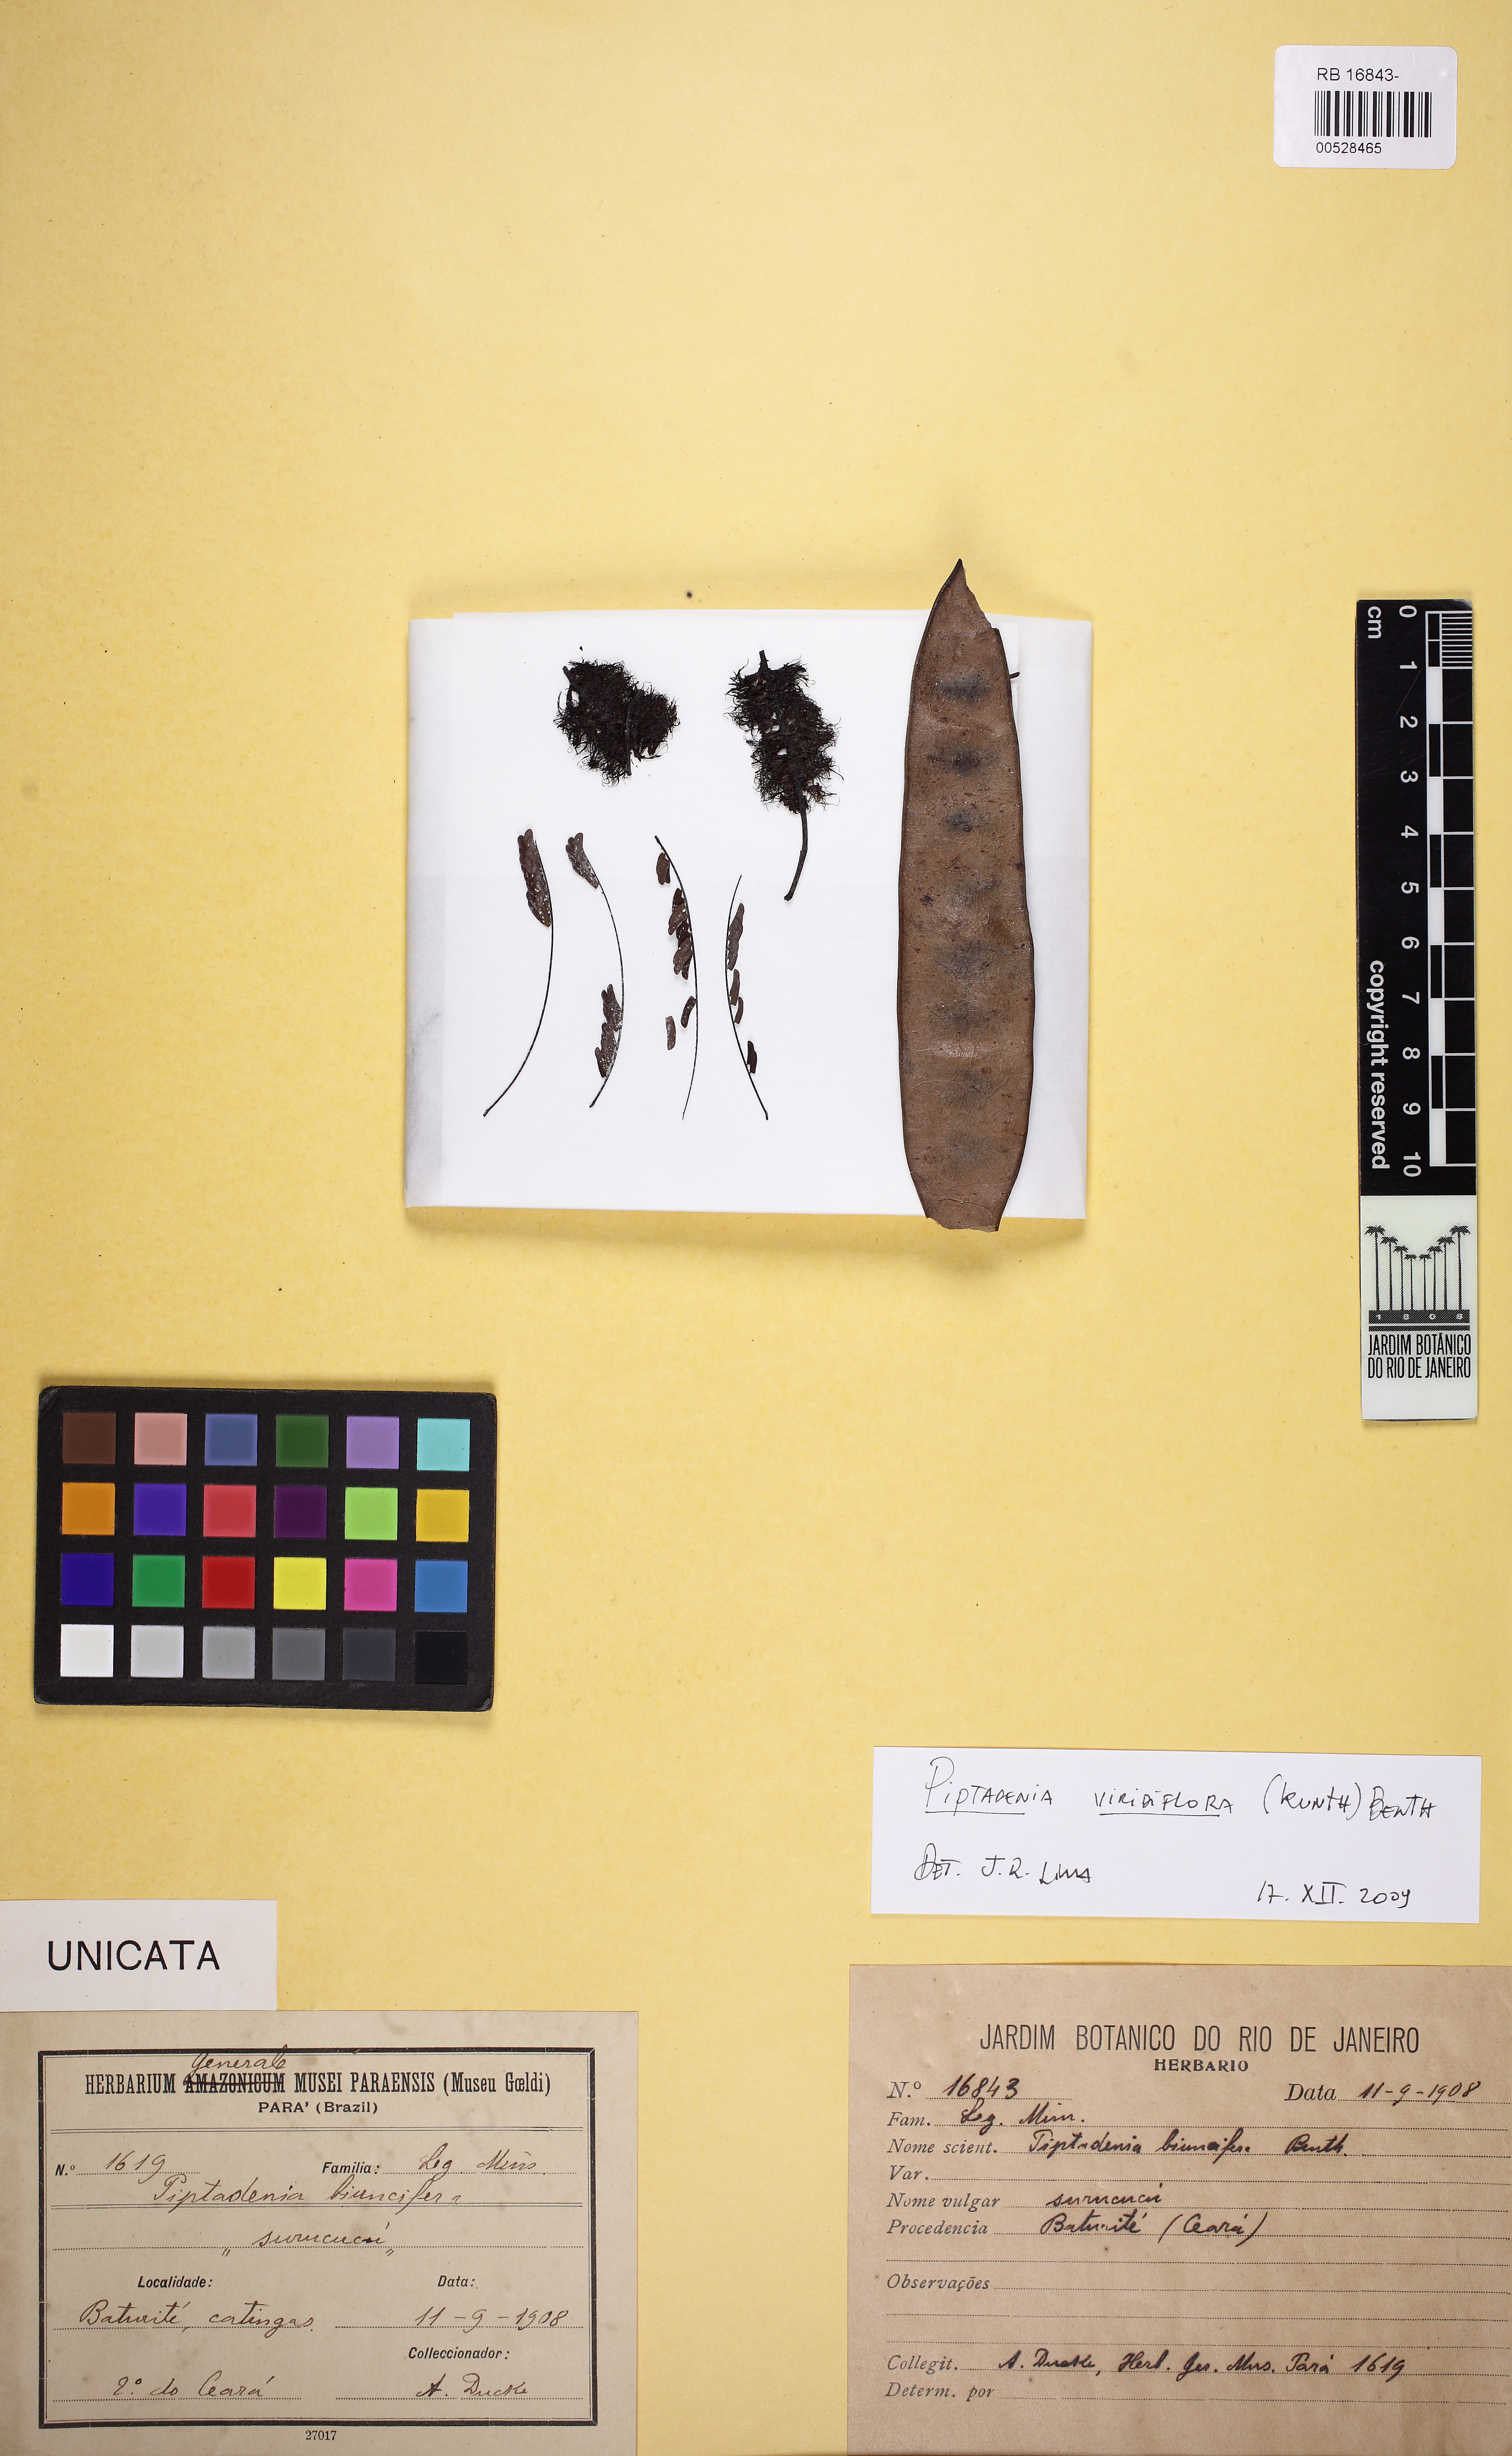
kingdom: Plantae
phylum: Tracheophyta
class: Magnoliopsida
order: Fabales
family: Fabaceae
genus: Lachesiodendron
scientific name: Lachesiodendron viridiflorum
